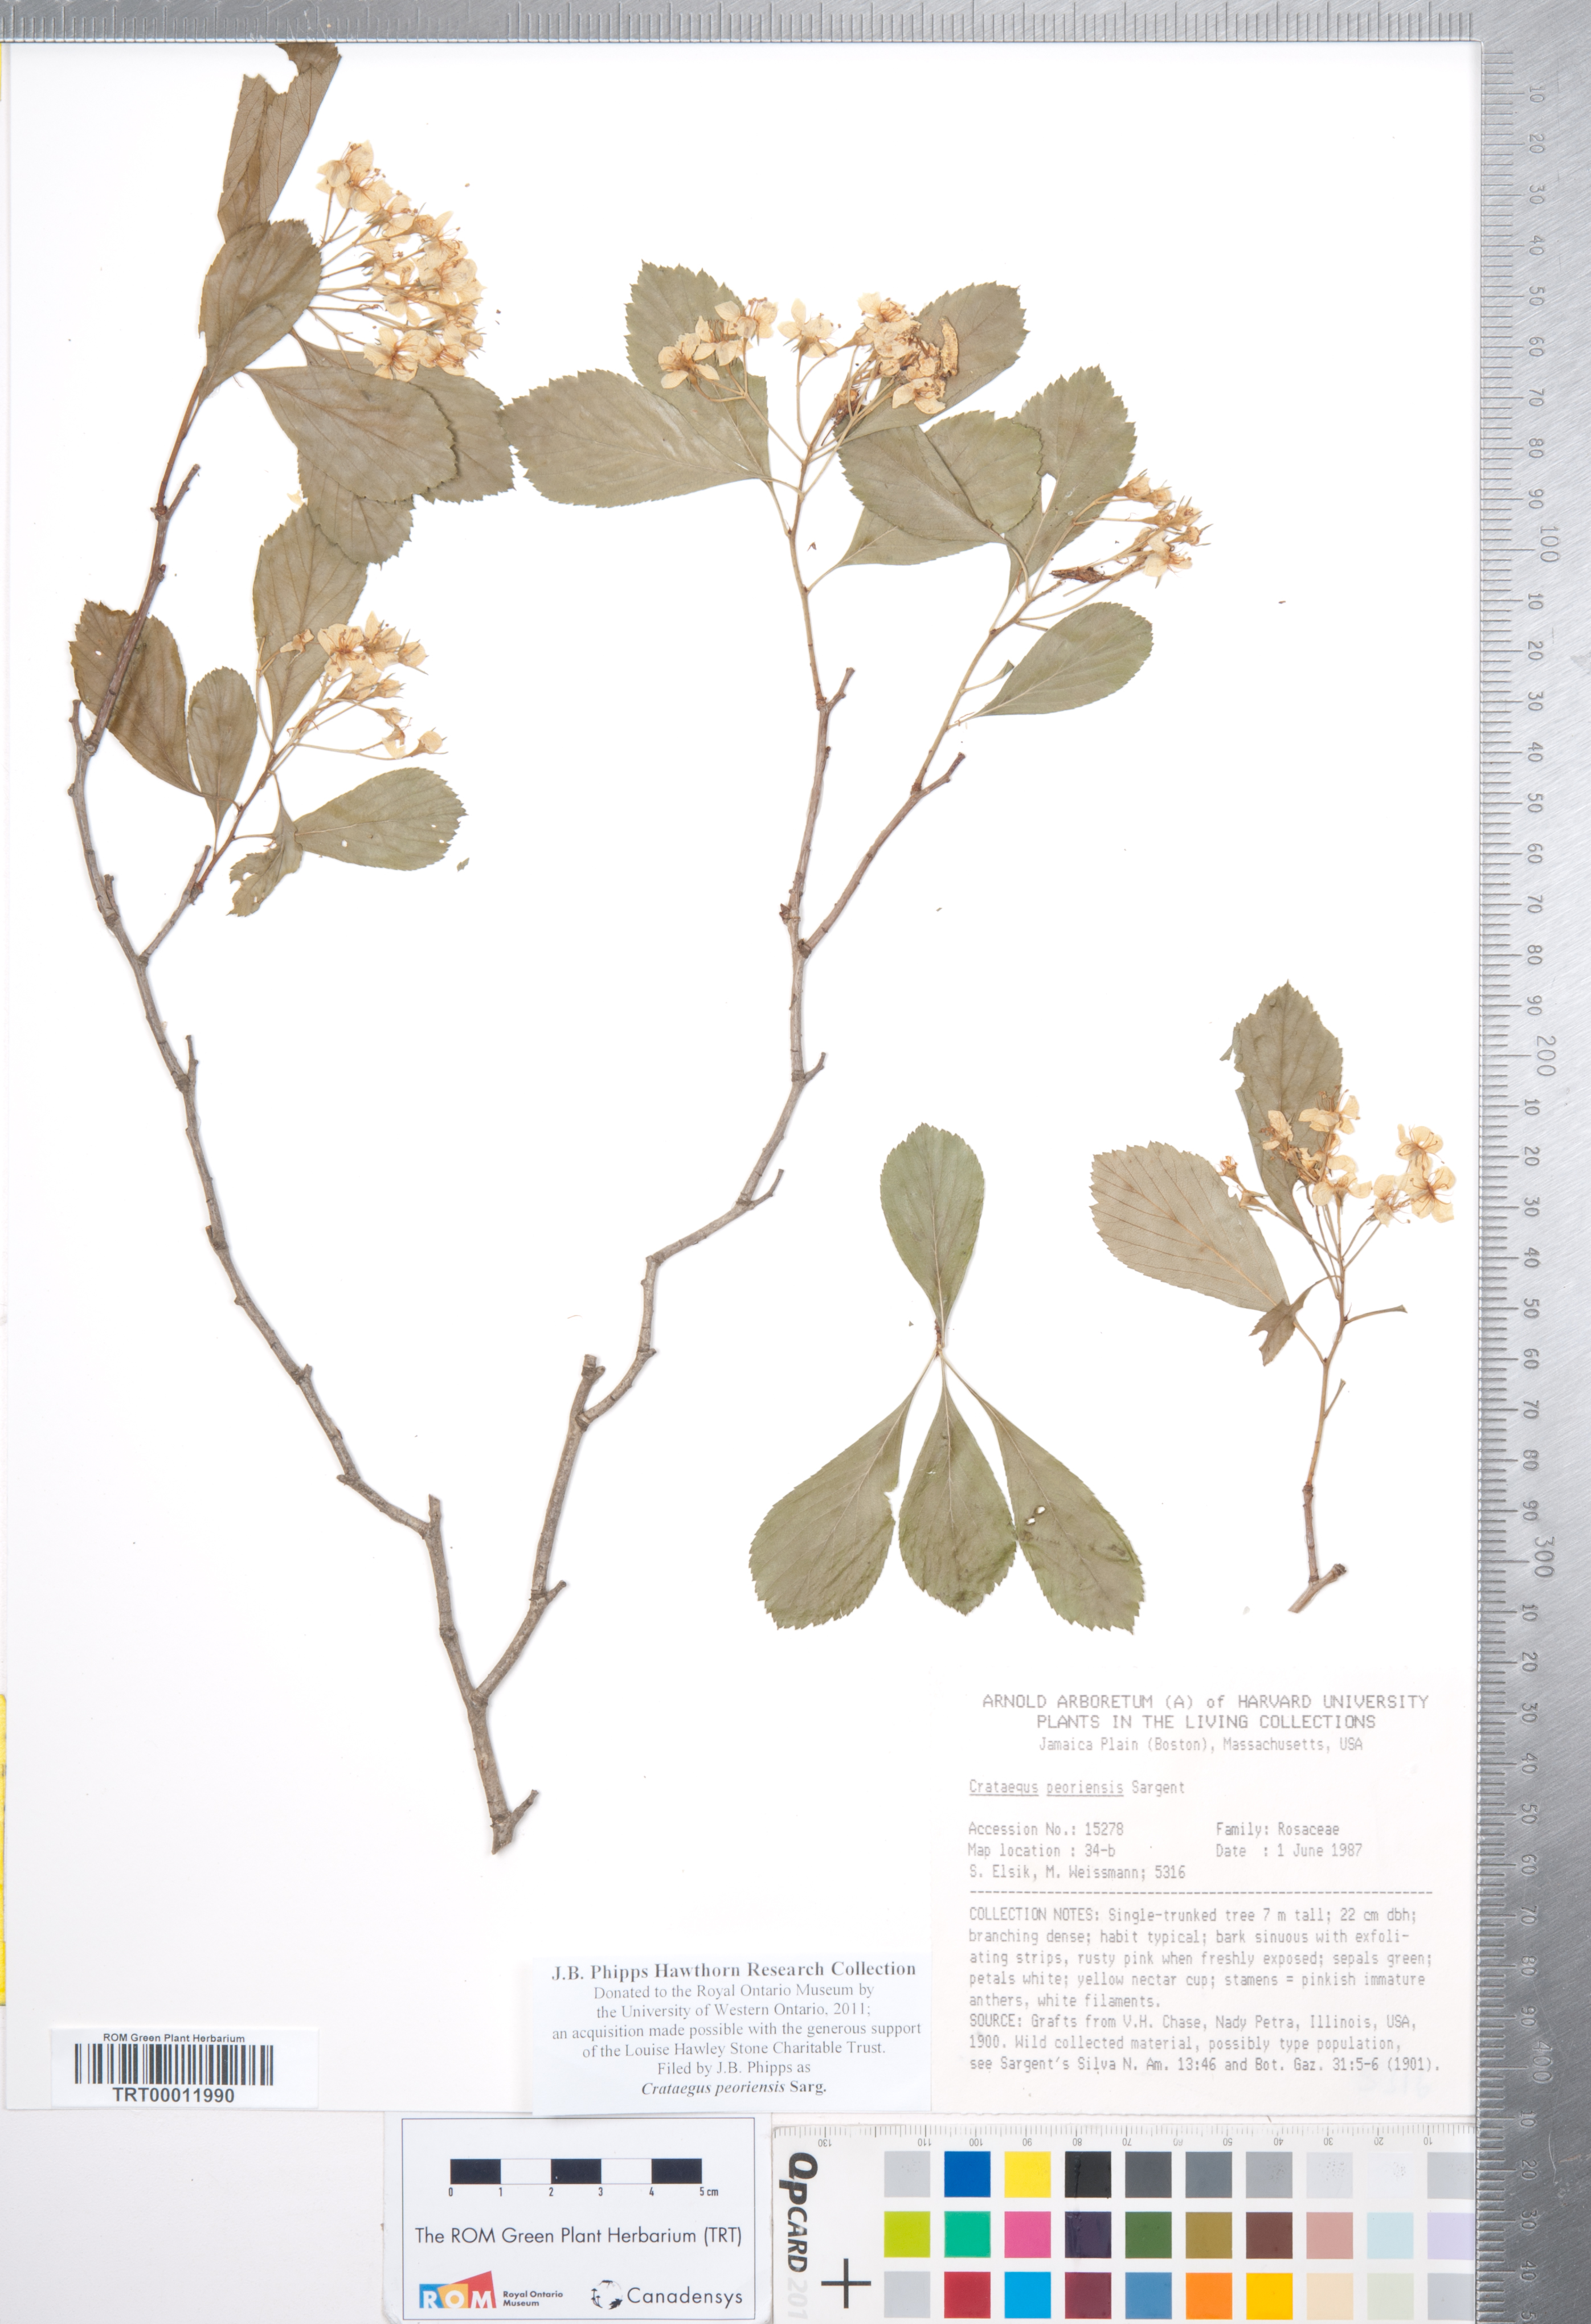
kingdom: Plantae
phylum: Tracheophyta
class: Magnoliopsida
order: Rosales
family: Rosaceae
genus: Crataegus
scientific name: Crataegus disperma
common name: Spreading hawthorn
